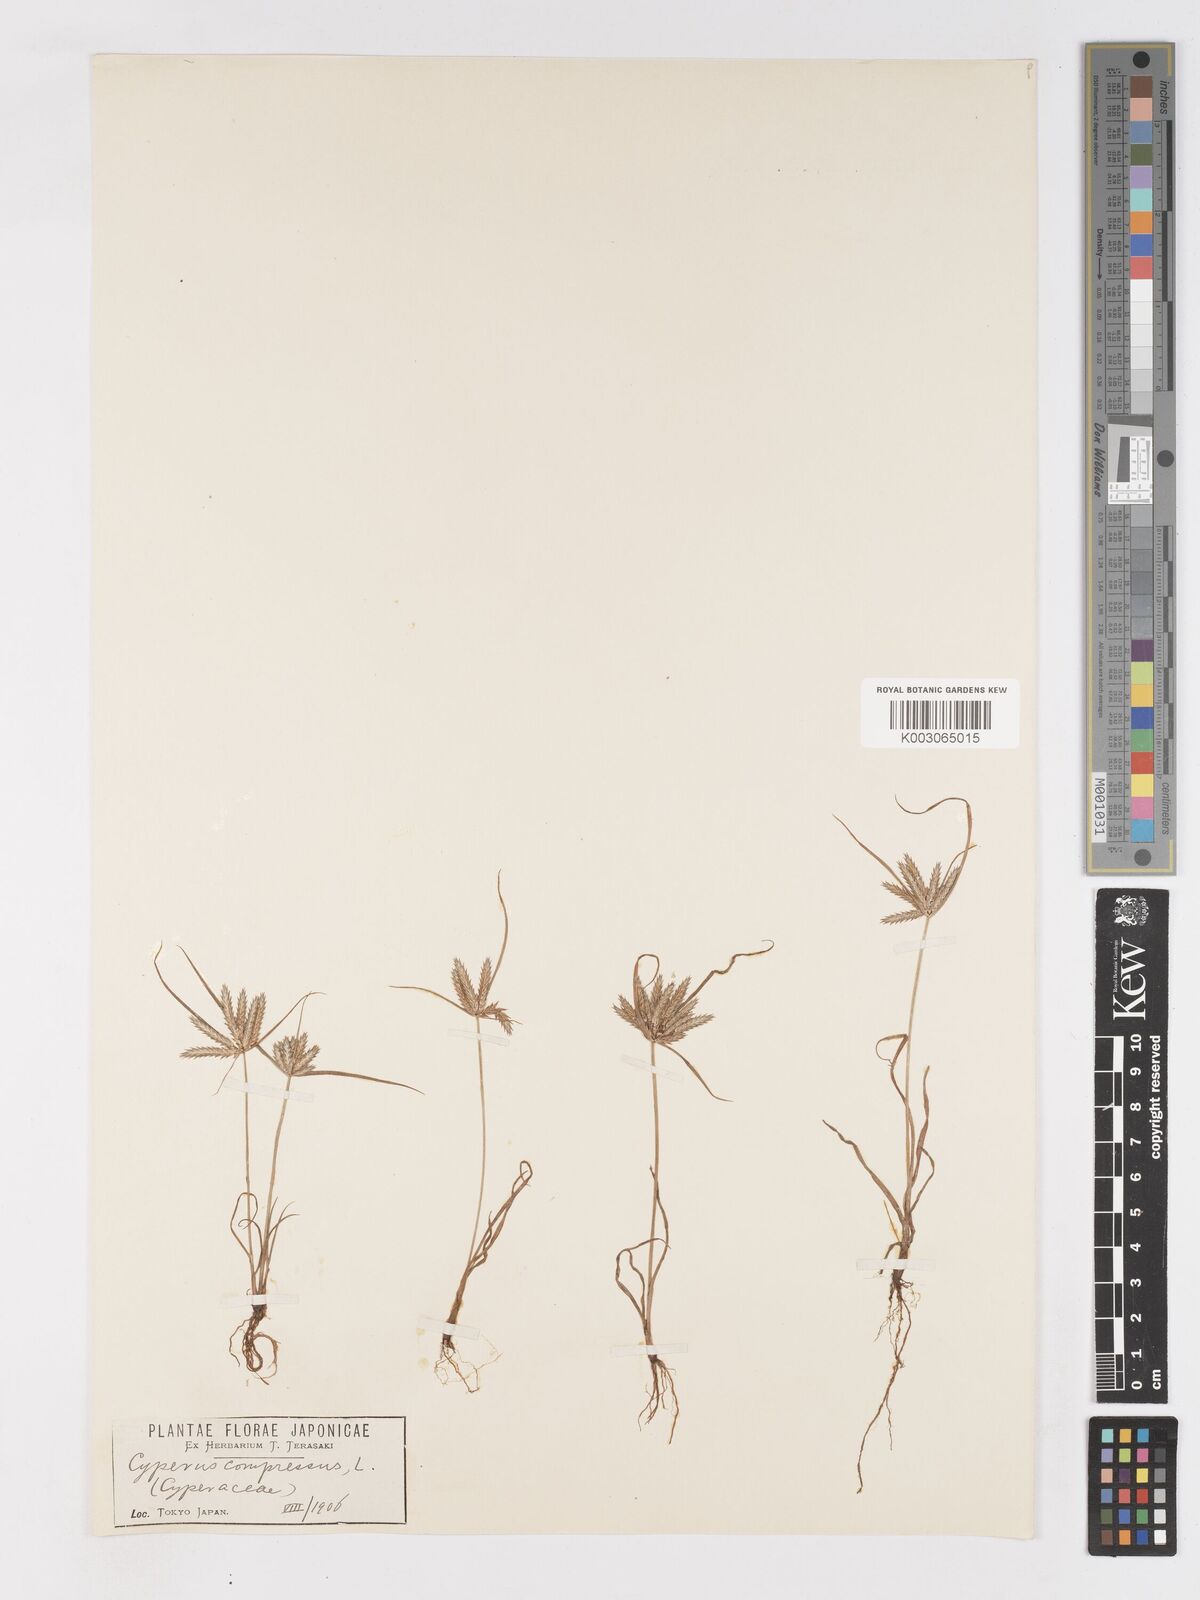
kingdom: Plantae
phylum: Tracheophyta
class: Liliopsida
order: Poales
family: Cyperaceae
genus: Cyperus
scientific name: Cyperus compressus
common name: Poorland flatsedge
